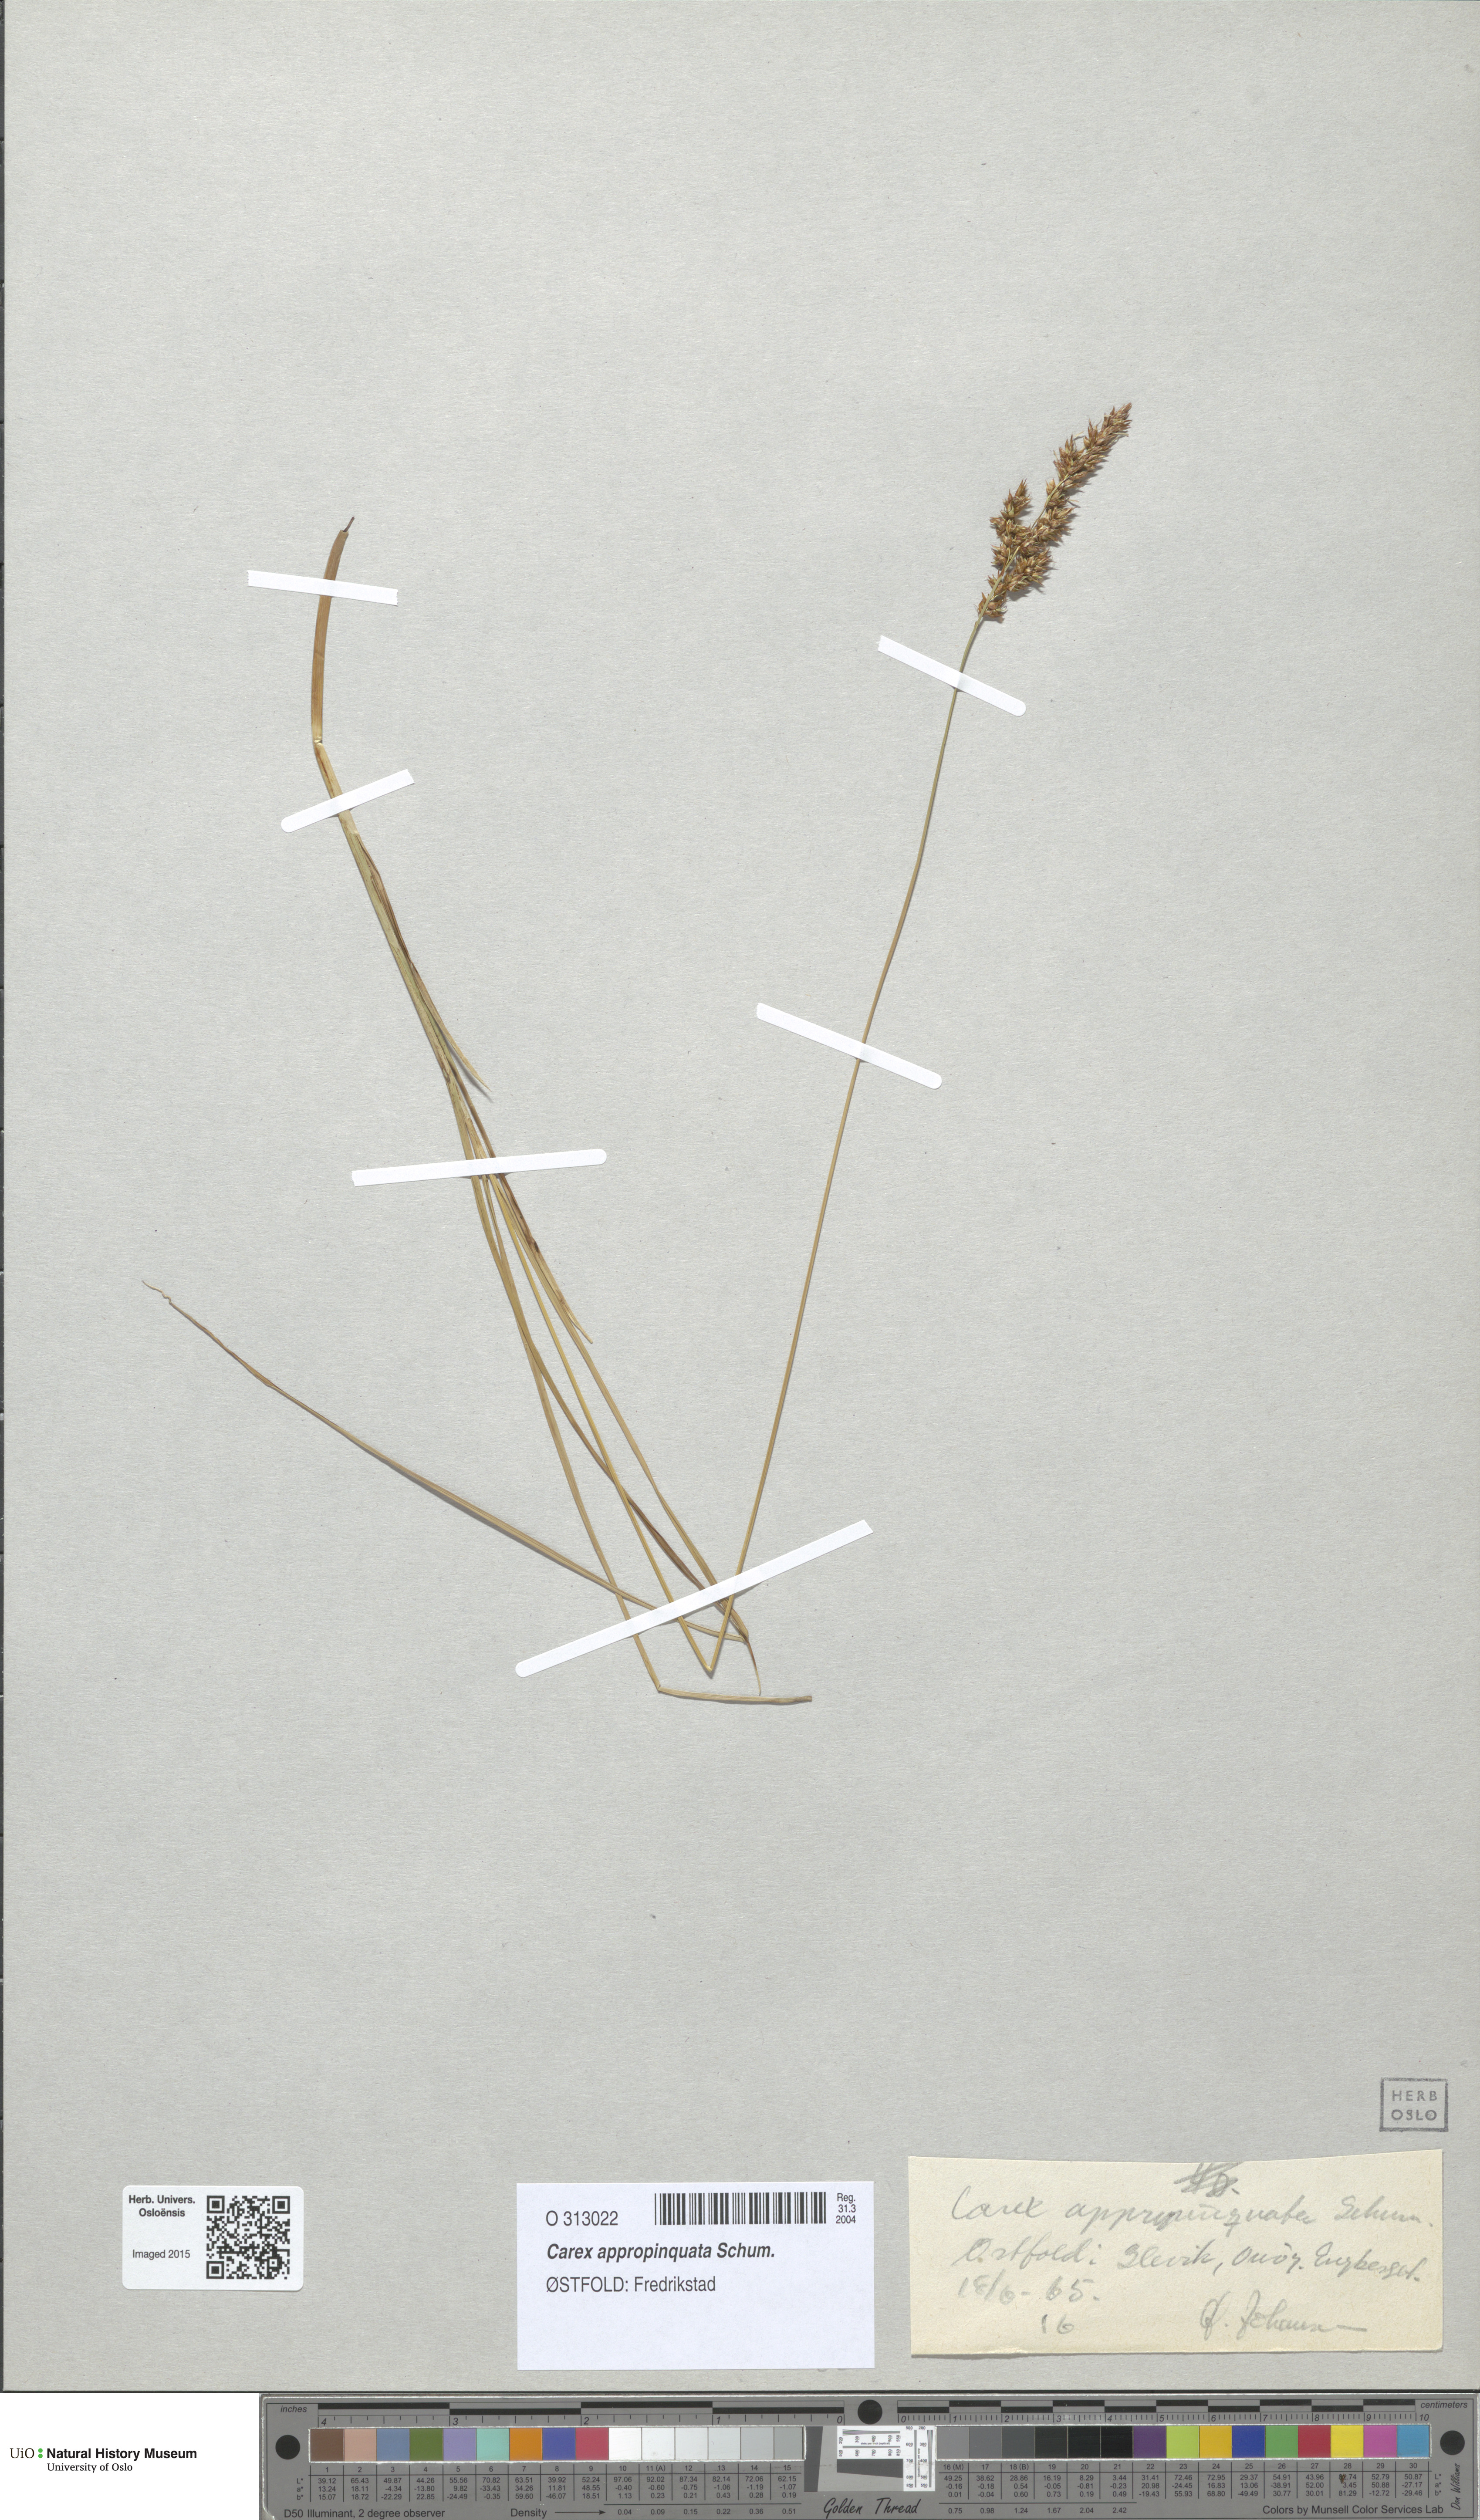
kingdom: Plantae
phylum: Tracheophyta
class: Liliopsida
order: Poales
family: Cyperaceae
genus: Carex
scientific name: Carex appropinquata
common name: Fibrous tussock-sedge
